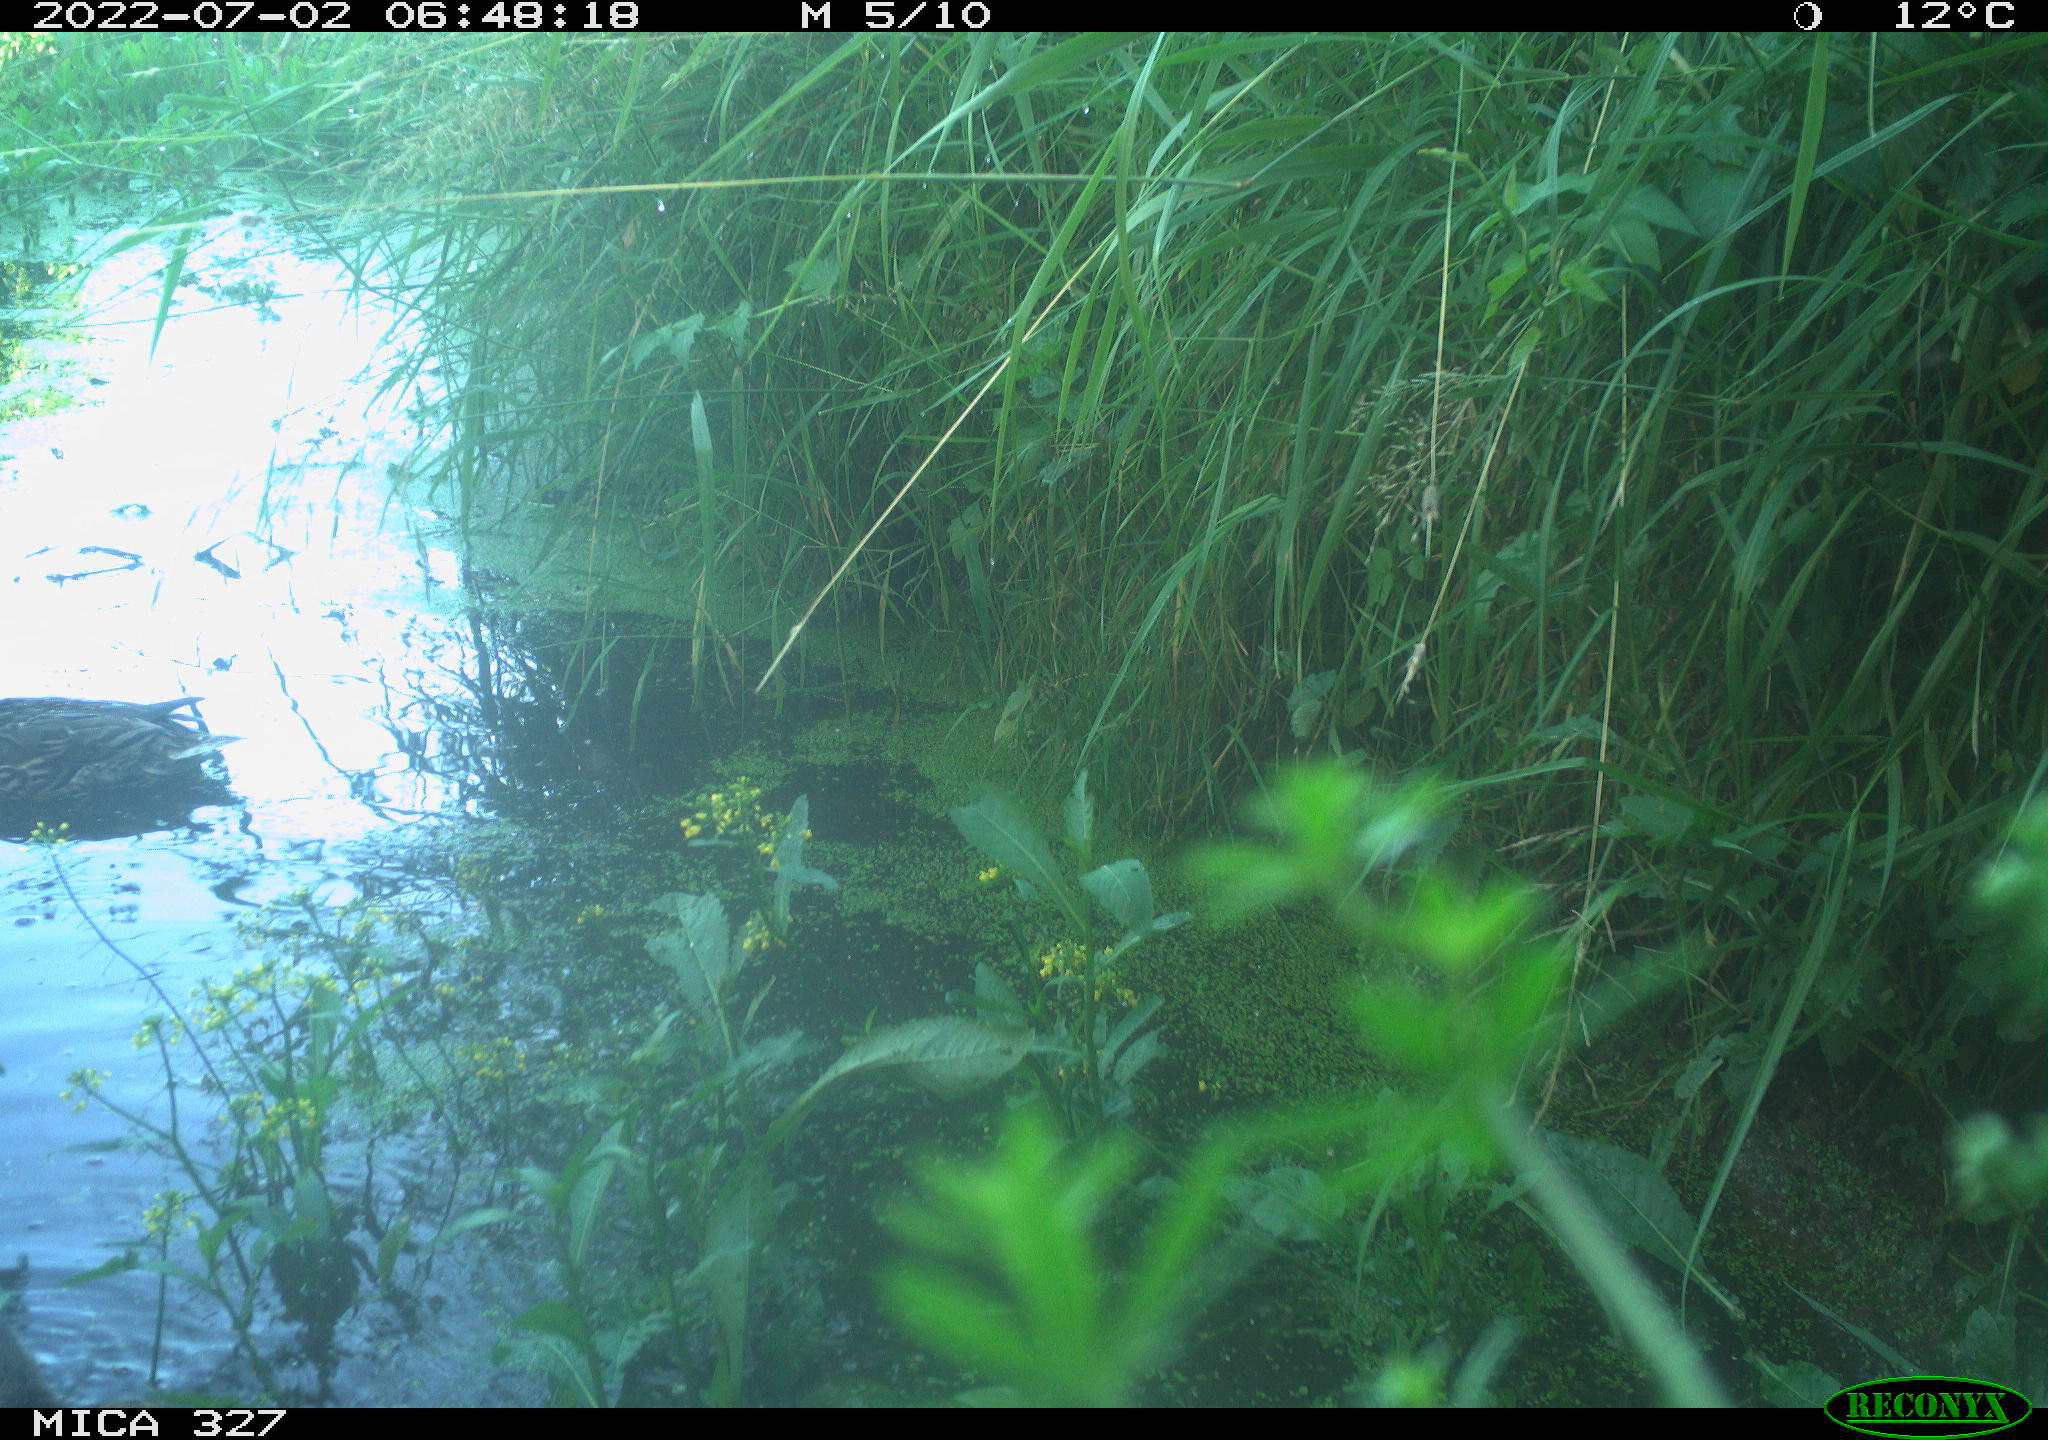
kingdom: Animalia
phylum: Chordata
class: Aves
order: Anseriformes
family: Anatidae
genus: Anas
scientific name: Anas
